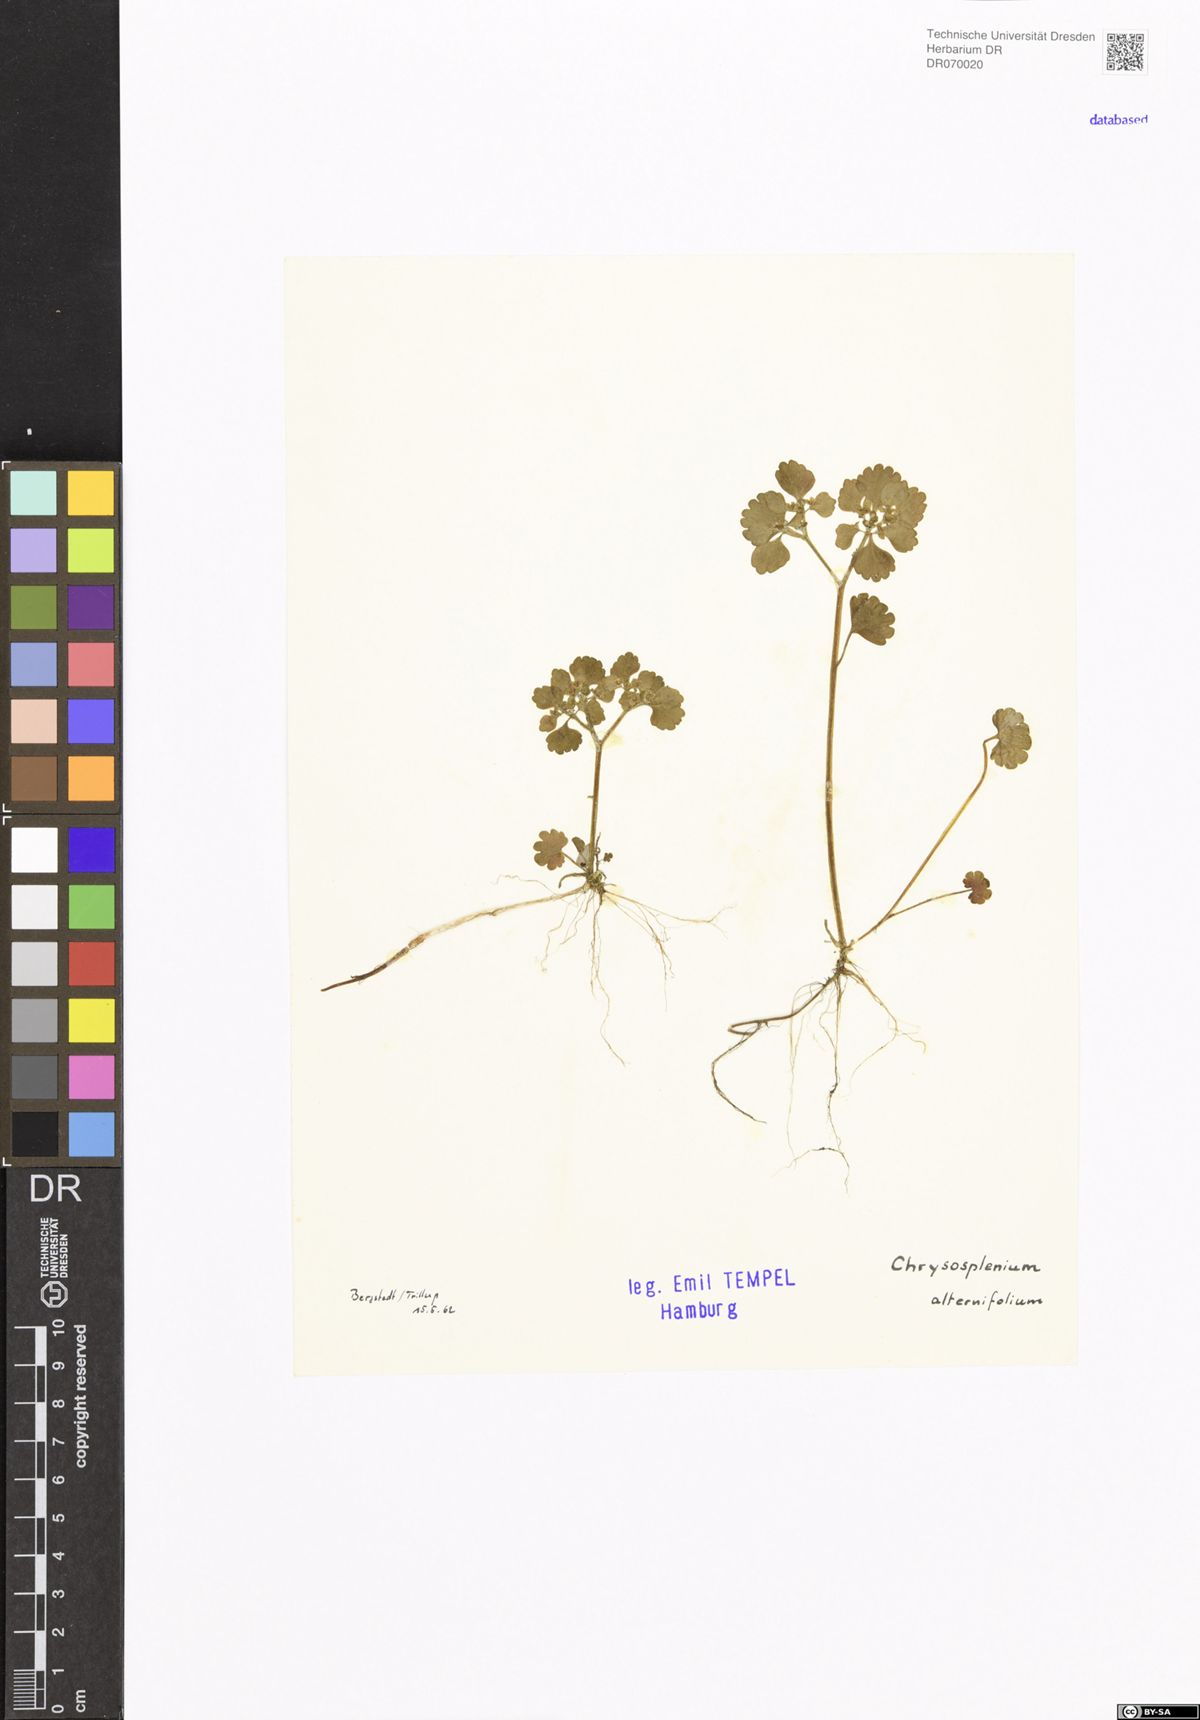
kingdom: Plantae
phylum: Tracheophyta
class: Magnoliopsida
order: Saxifragales
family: Saxifragaceae
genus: Chrysosplenium
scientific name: Chrysosplenium alternifolium
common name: Alternate-leaved golden-saxifrage
